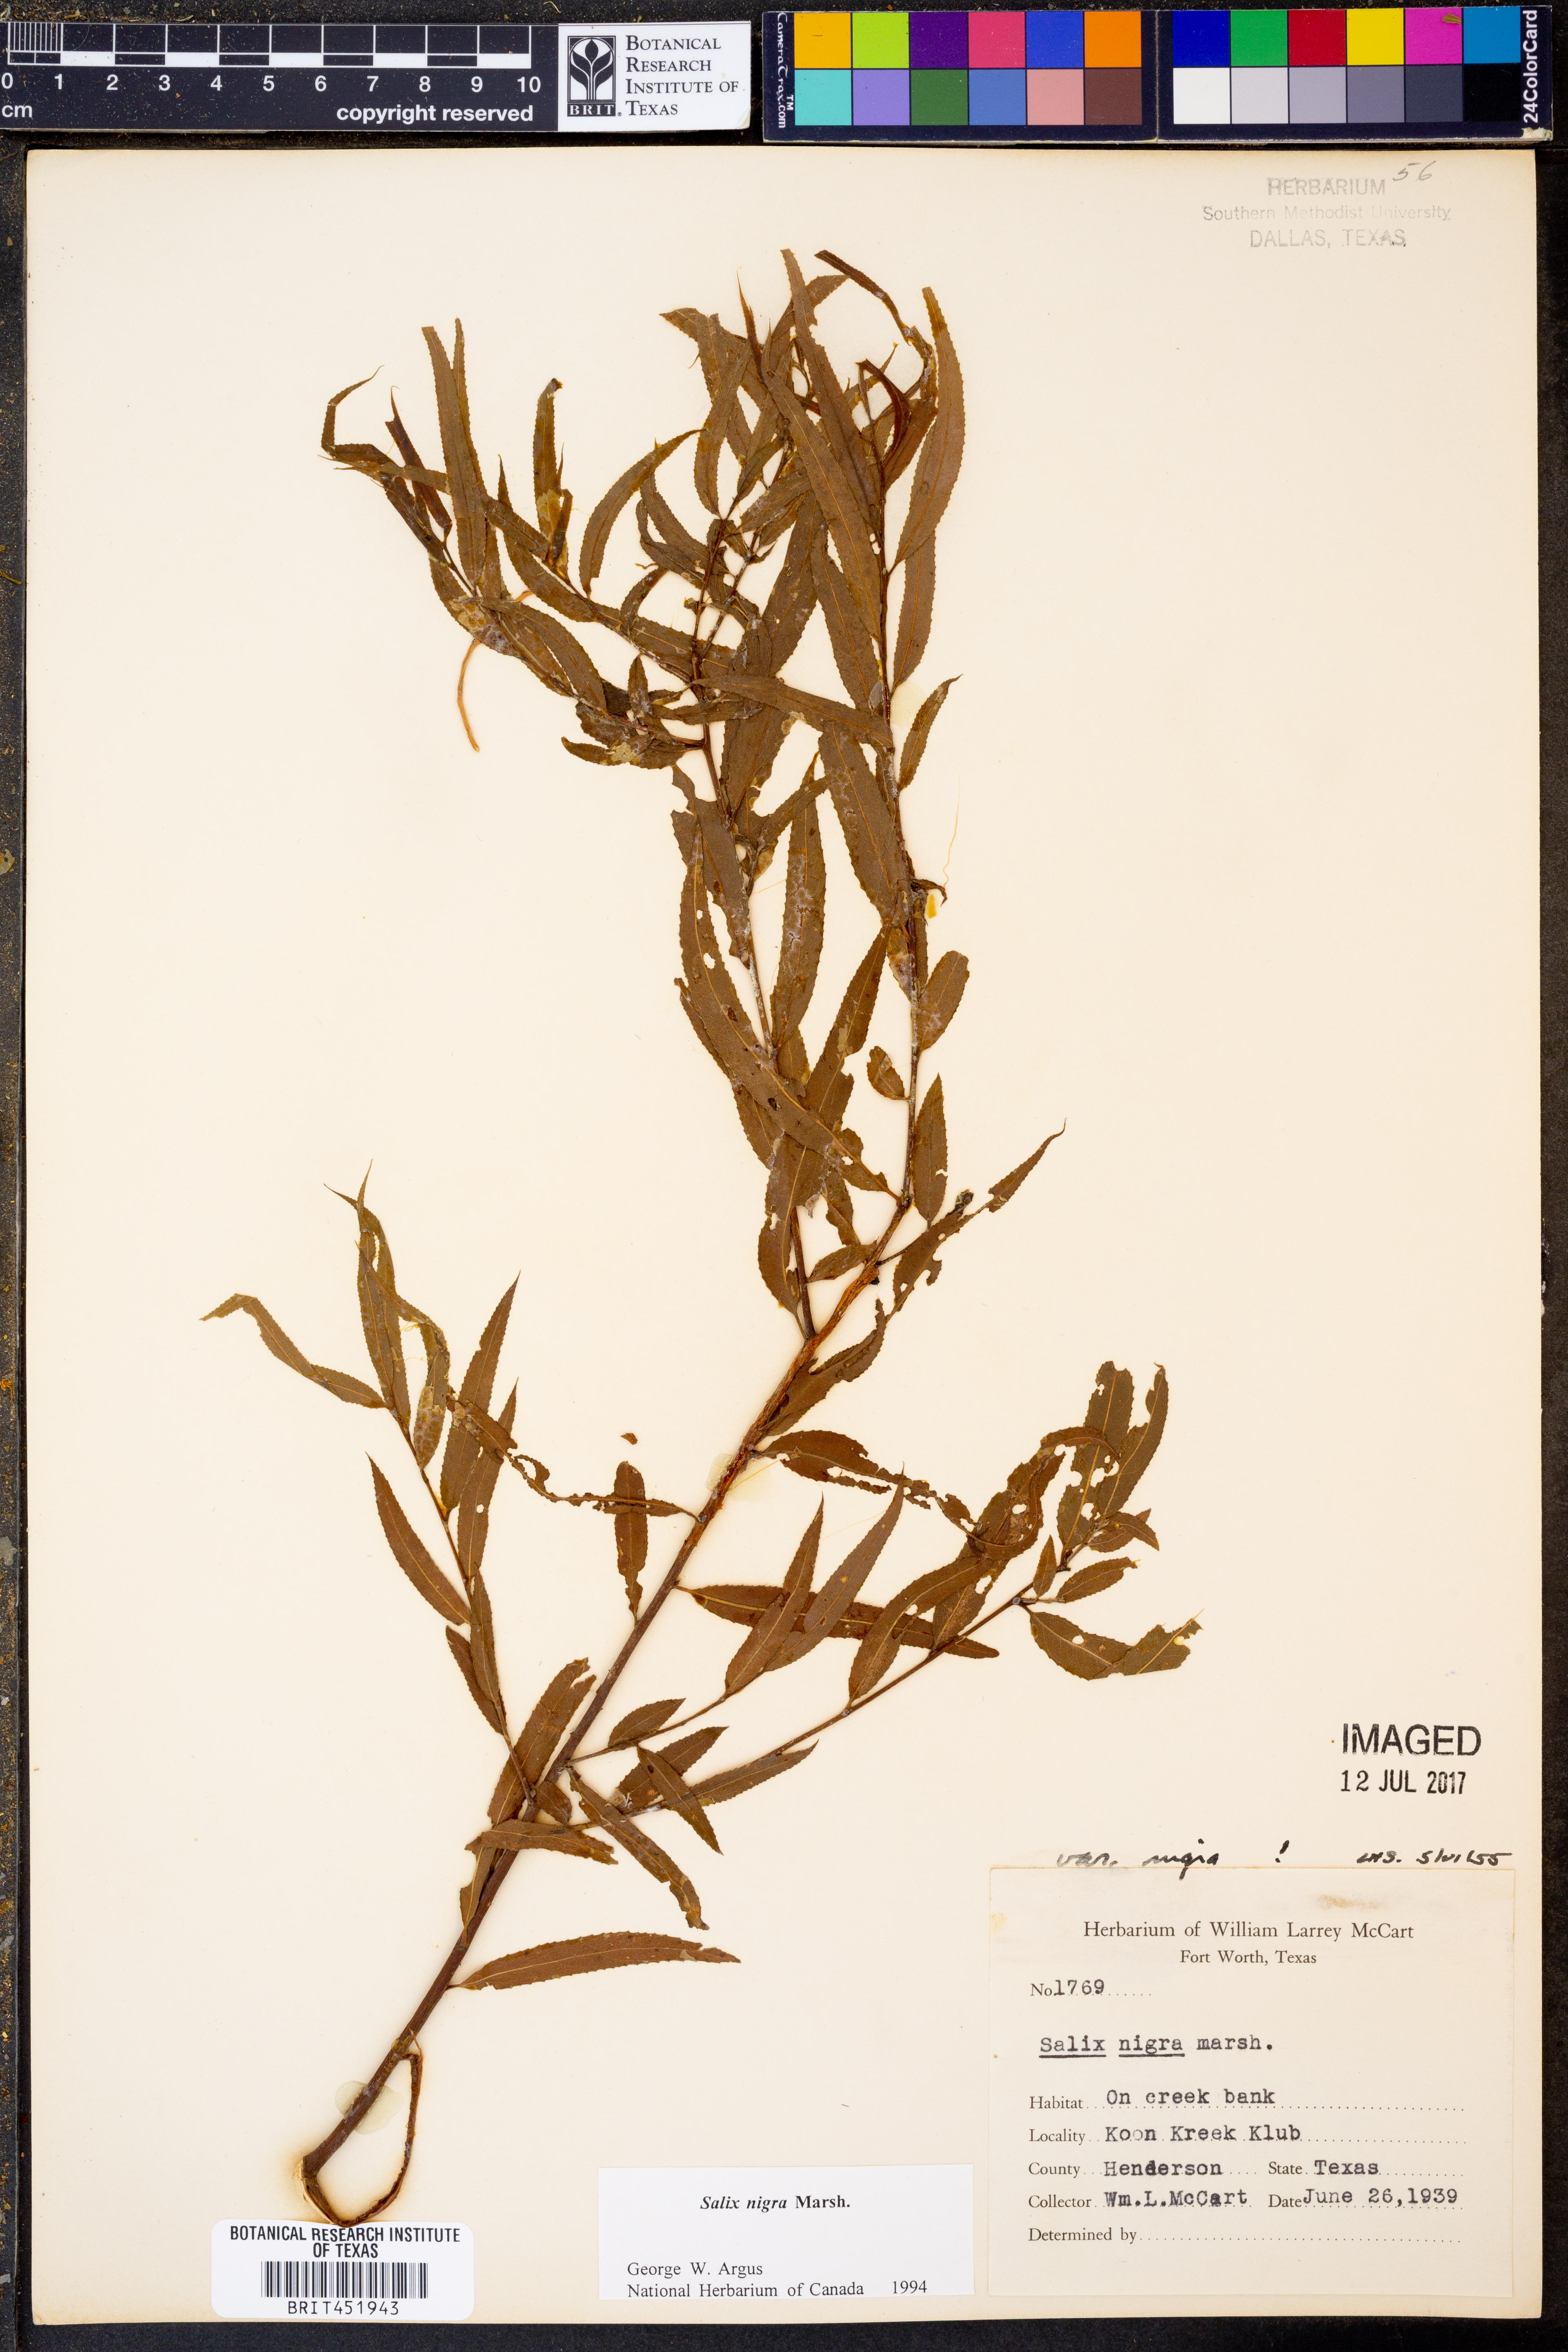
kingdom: Plantae
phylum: Tracheophyta
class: Magnoliopsida
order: Malpighiales
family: Salicaceae
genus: Salix
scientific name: Salix nigra
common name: Black willow
